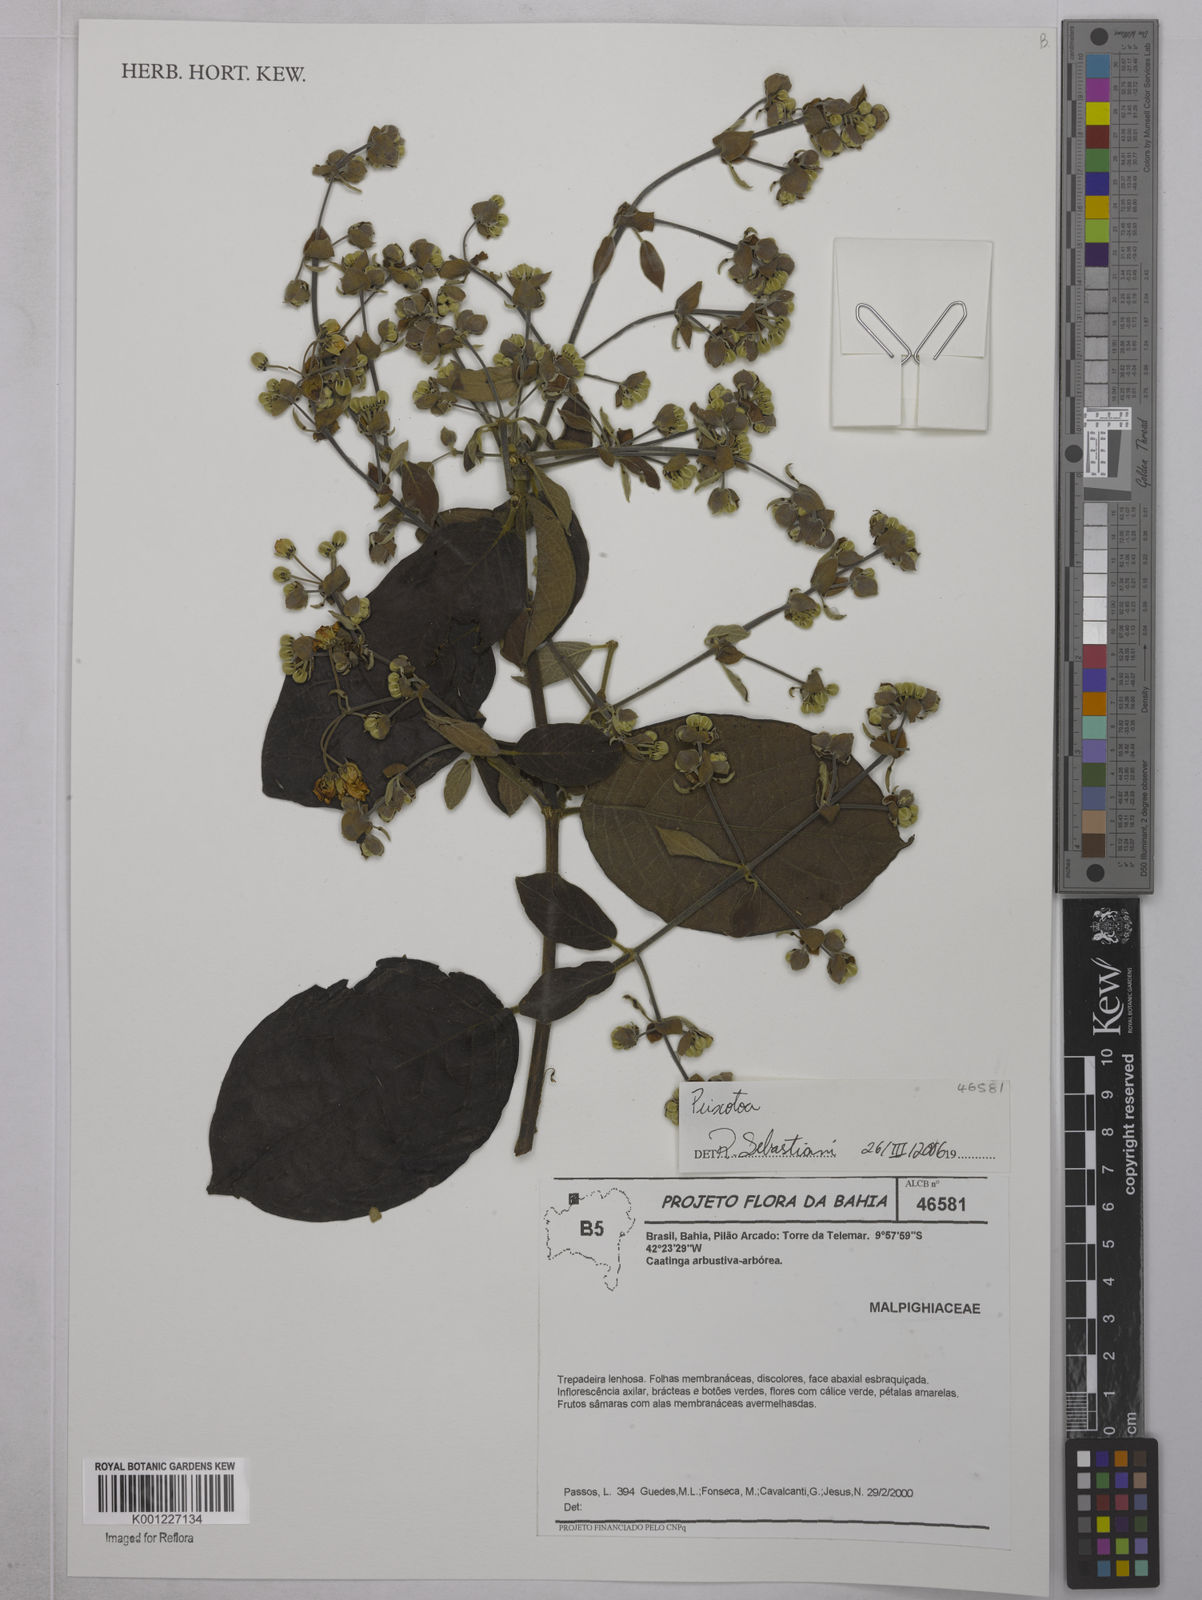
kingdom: Plantae
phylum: Tracheophyta
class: Magnoliopsida
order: Malpighiales
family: Malpighiaceae
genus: Peixotoa
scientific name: Peixotoa
